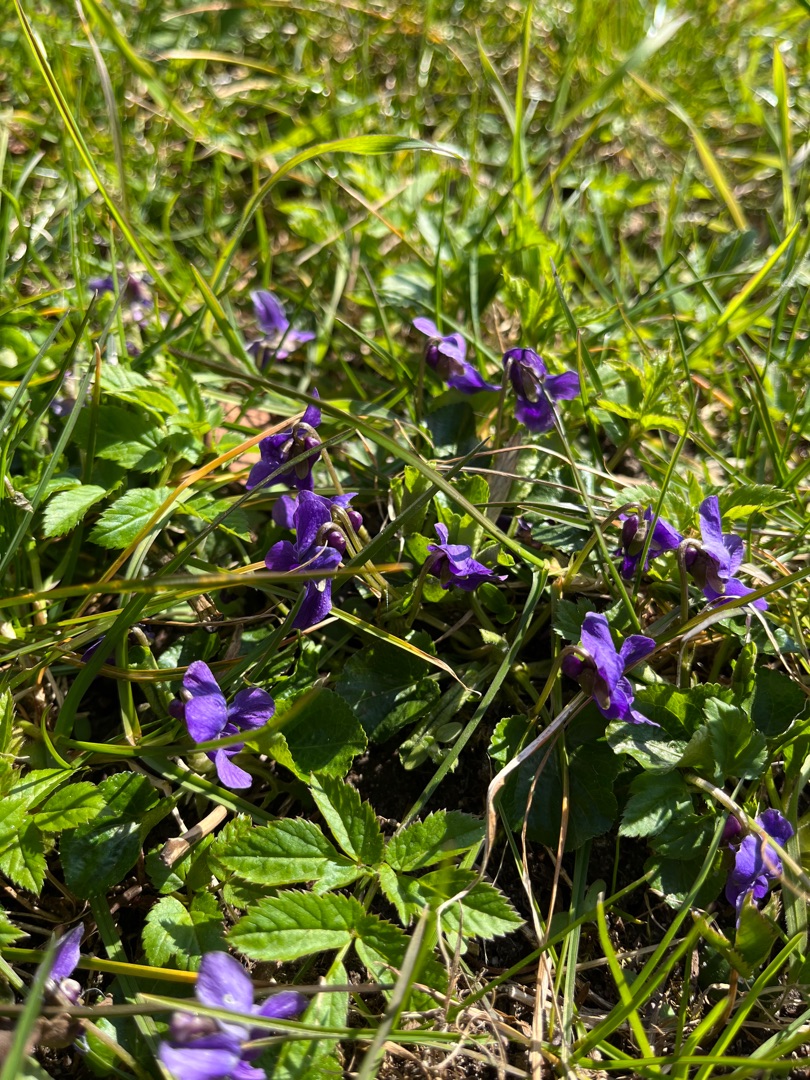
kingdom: Plantae
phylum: Tracheophyta
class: Magnoliopsida
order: Malpighiales
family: Violaceae
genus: Viola
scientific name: Viola odorata
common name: Marts-viol
